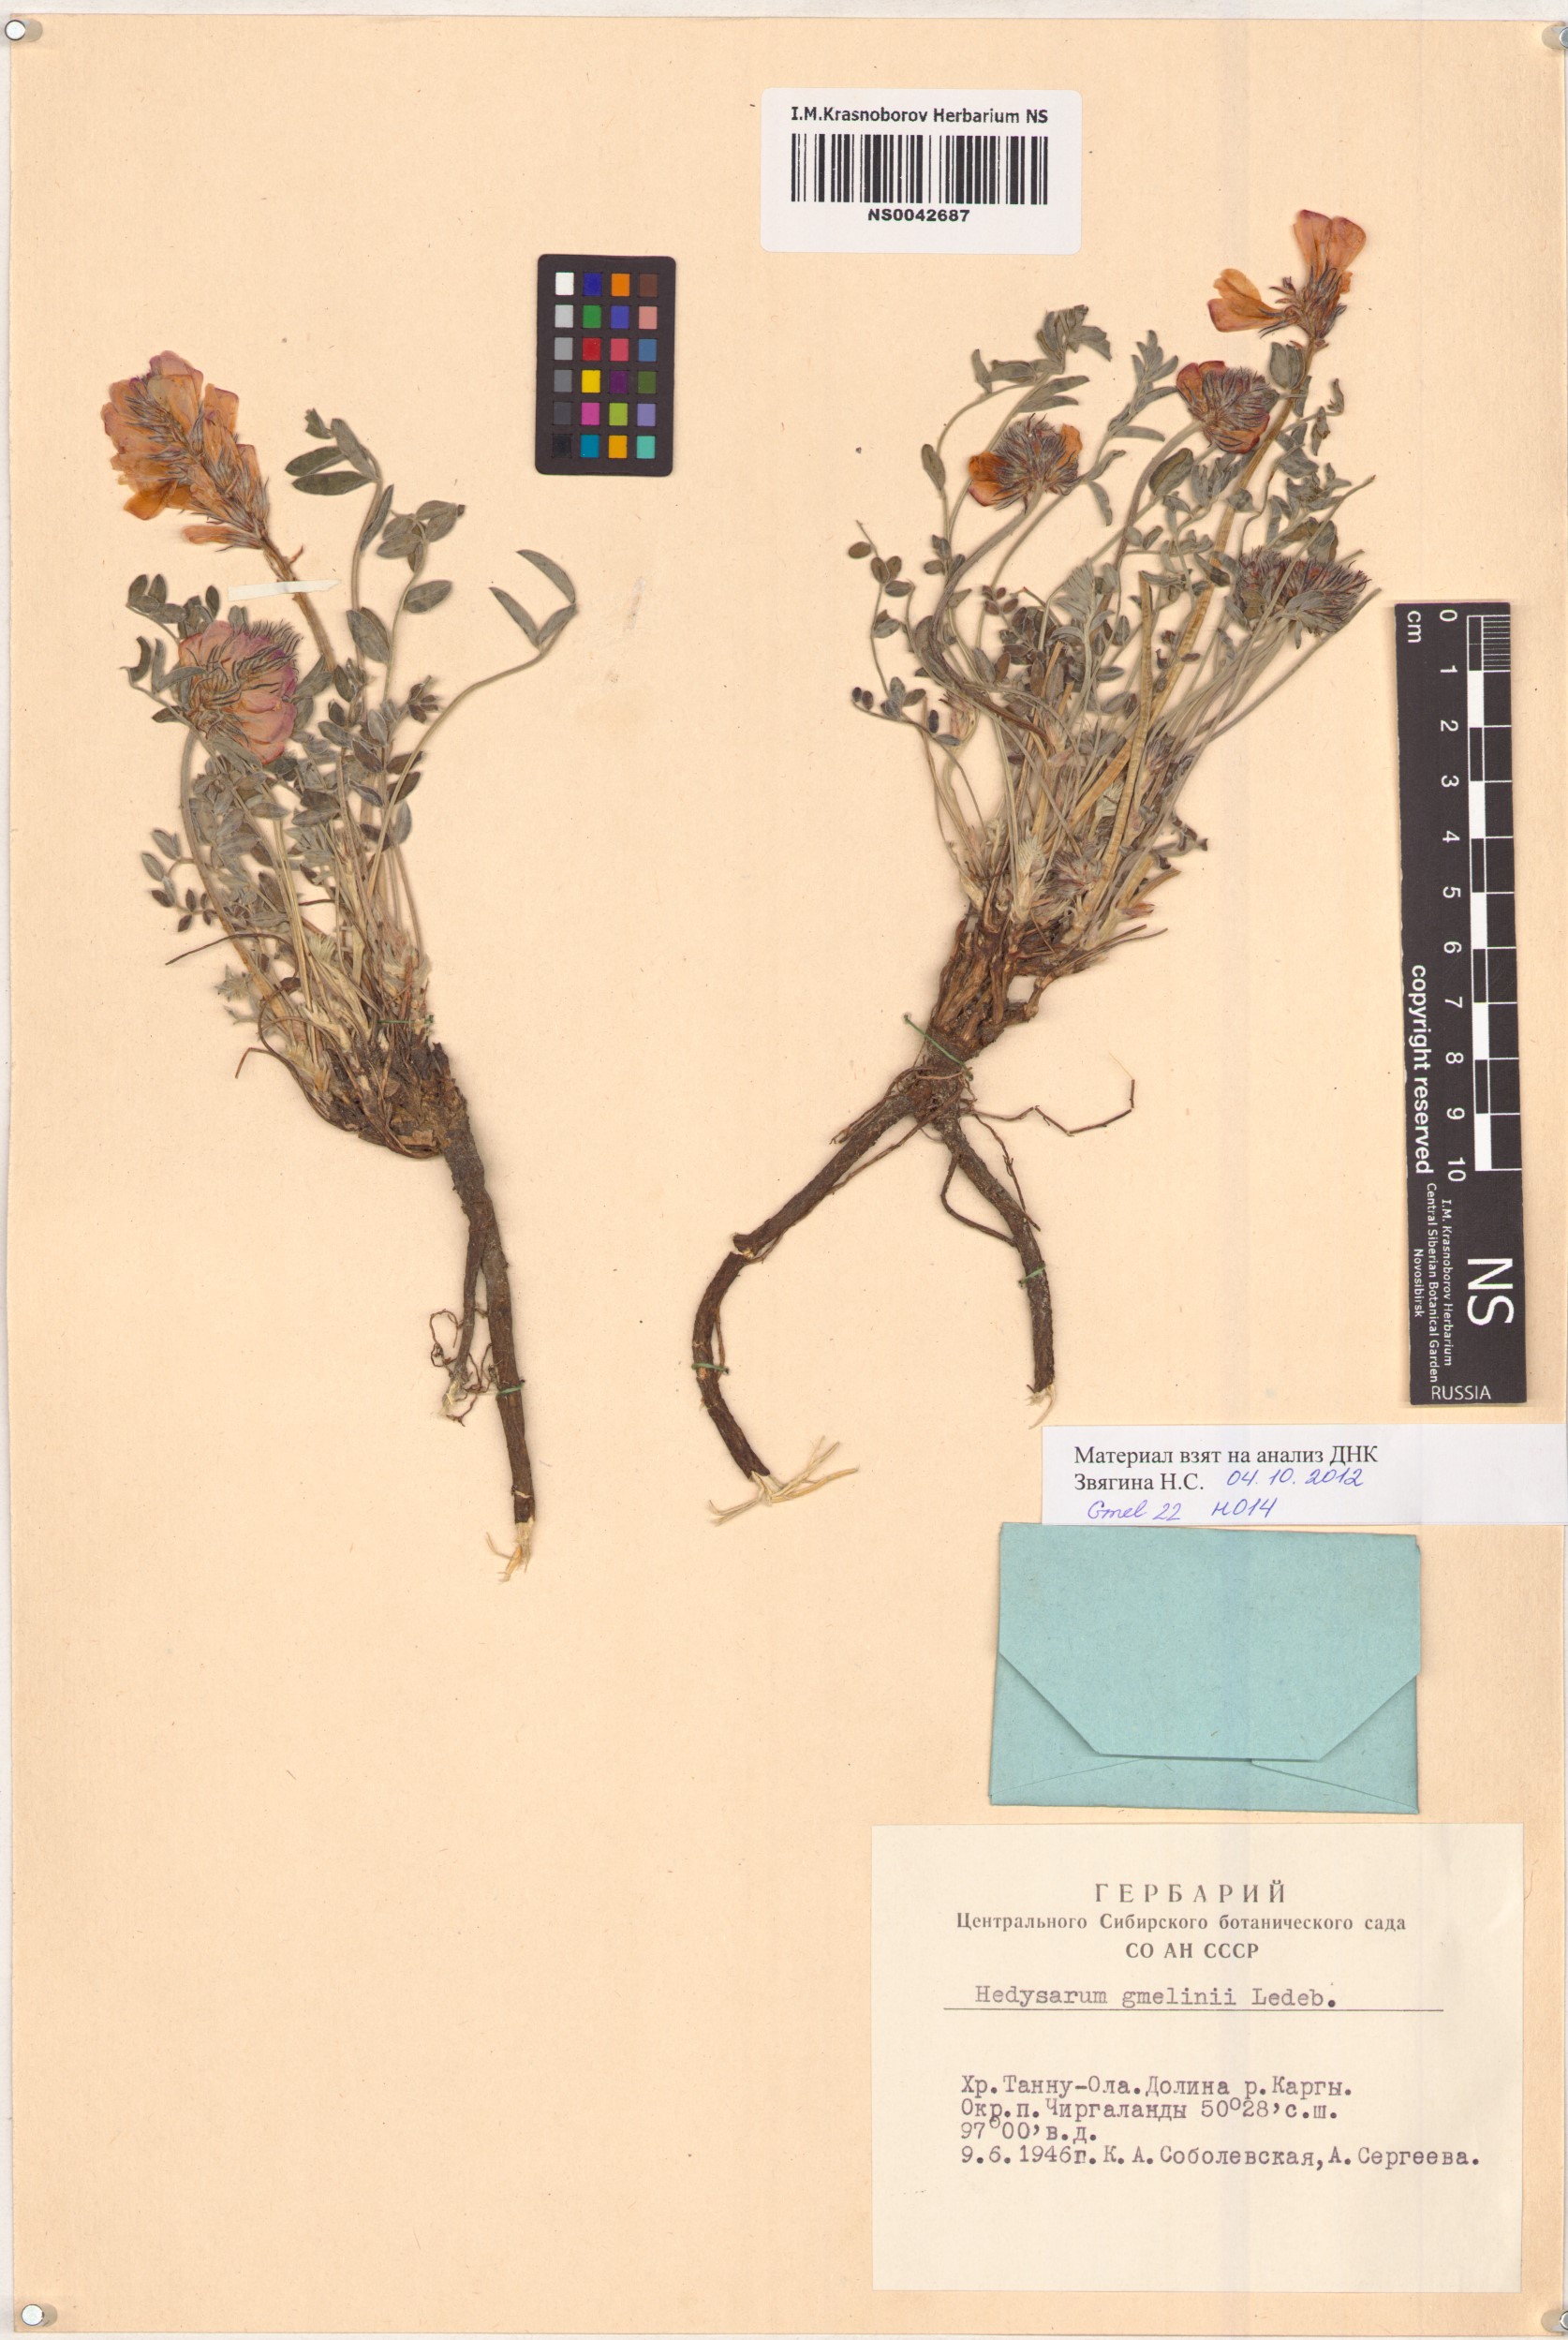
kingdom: Plantae
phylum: Tracheophyta
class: Magnoliopsida
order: Fabales
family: Fabaceae
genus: Hedysarum
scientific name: Hedysarum gmelinii
